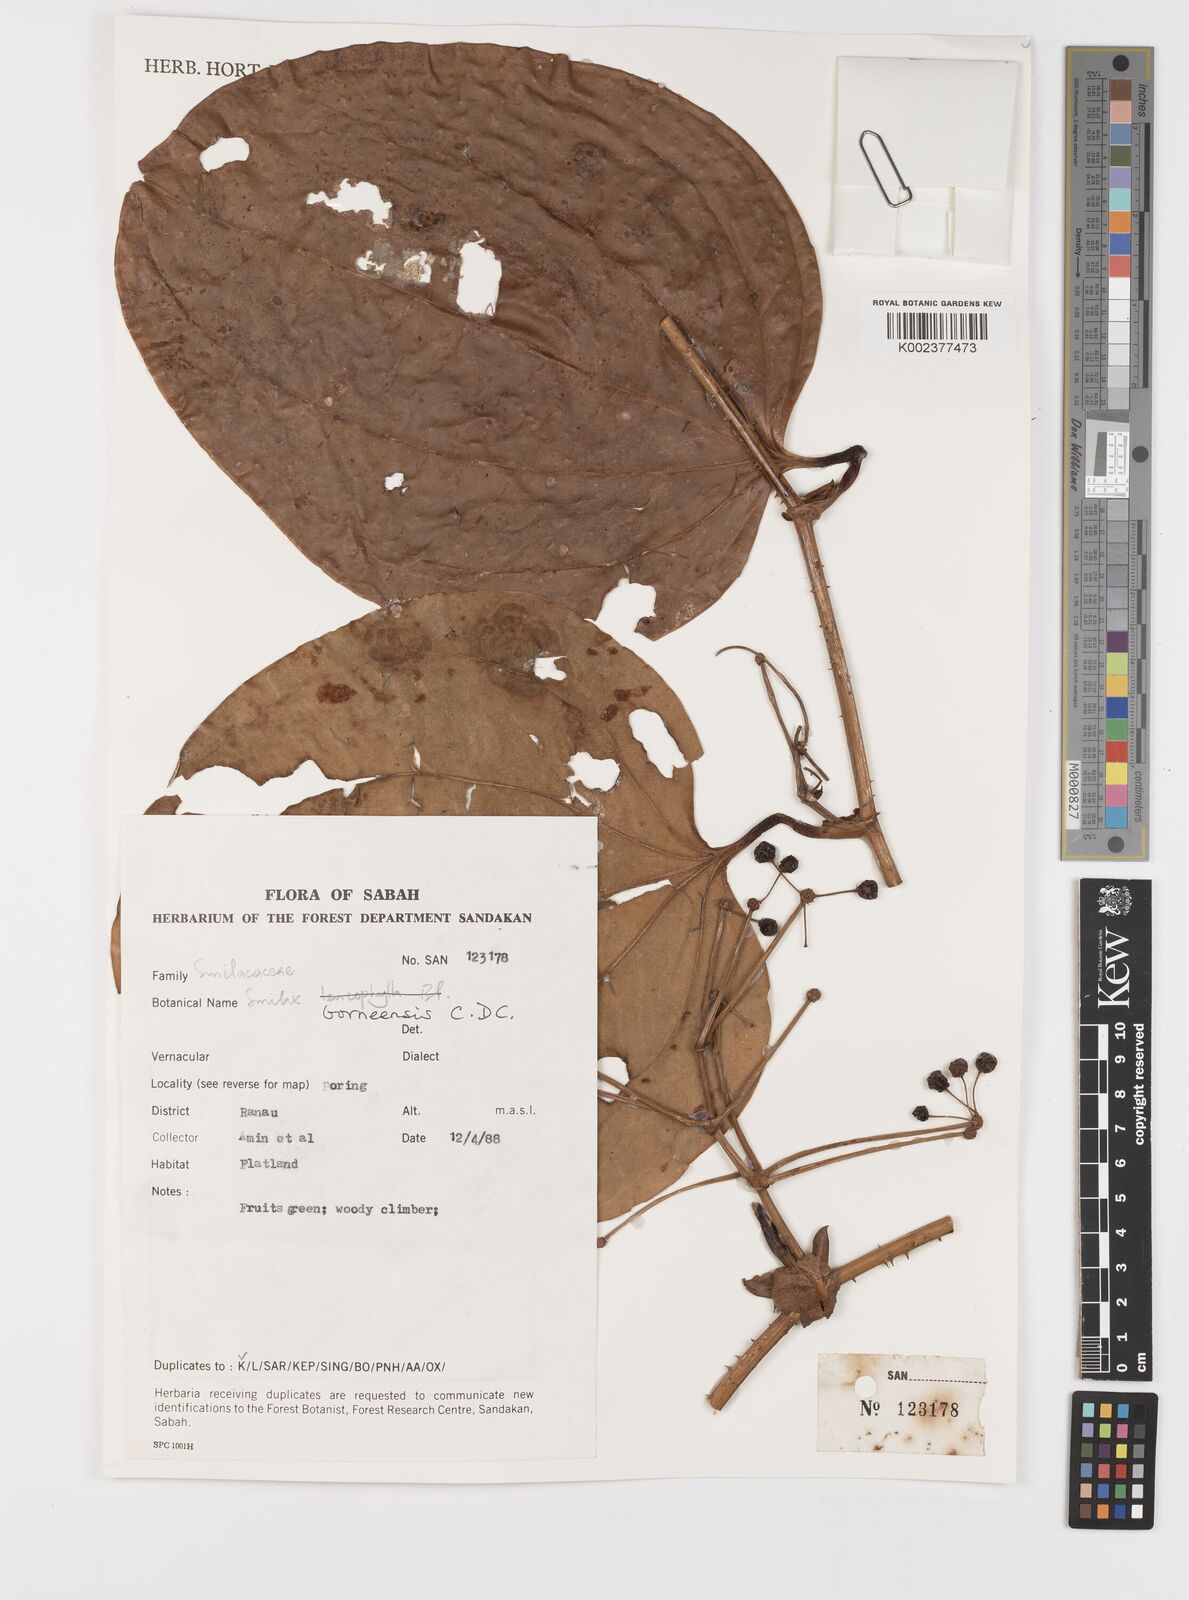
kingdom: Plantae
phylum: Tracheophyta
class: Liliopsida
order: Liliales
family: Smilacaceae
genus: Smilax
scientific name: Smilax borneensis
